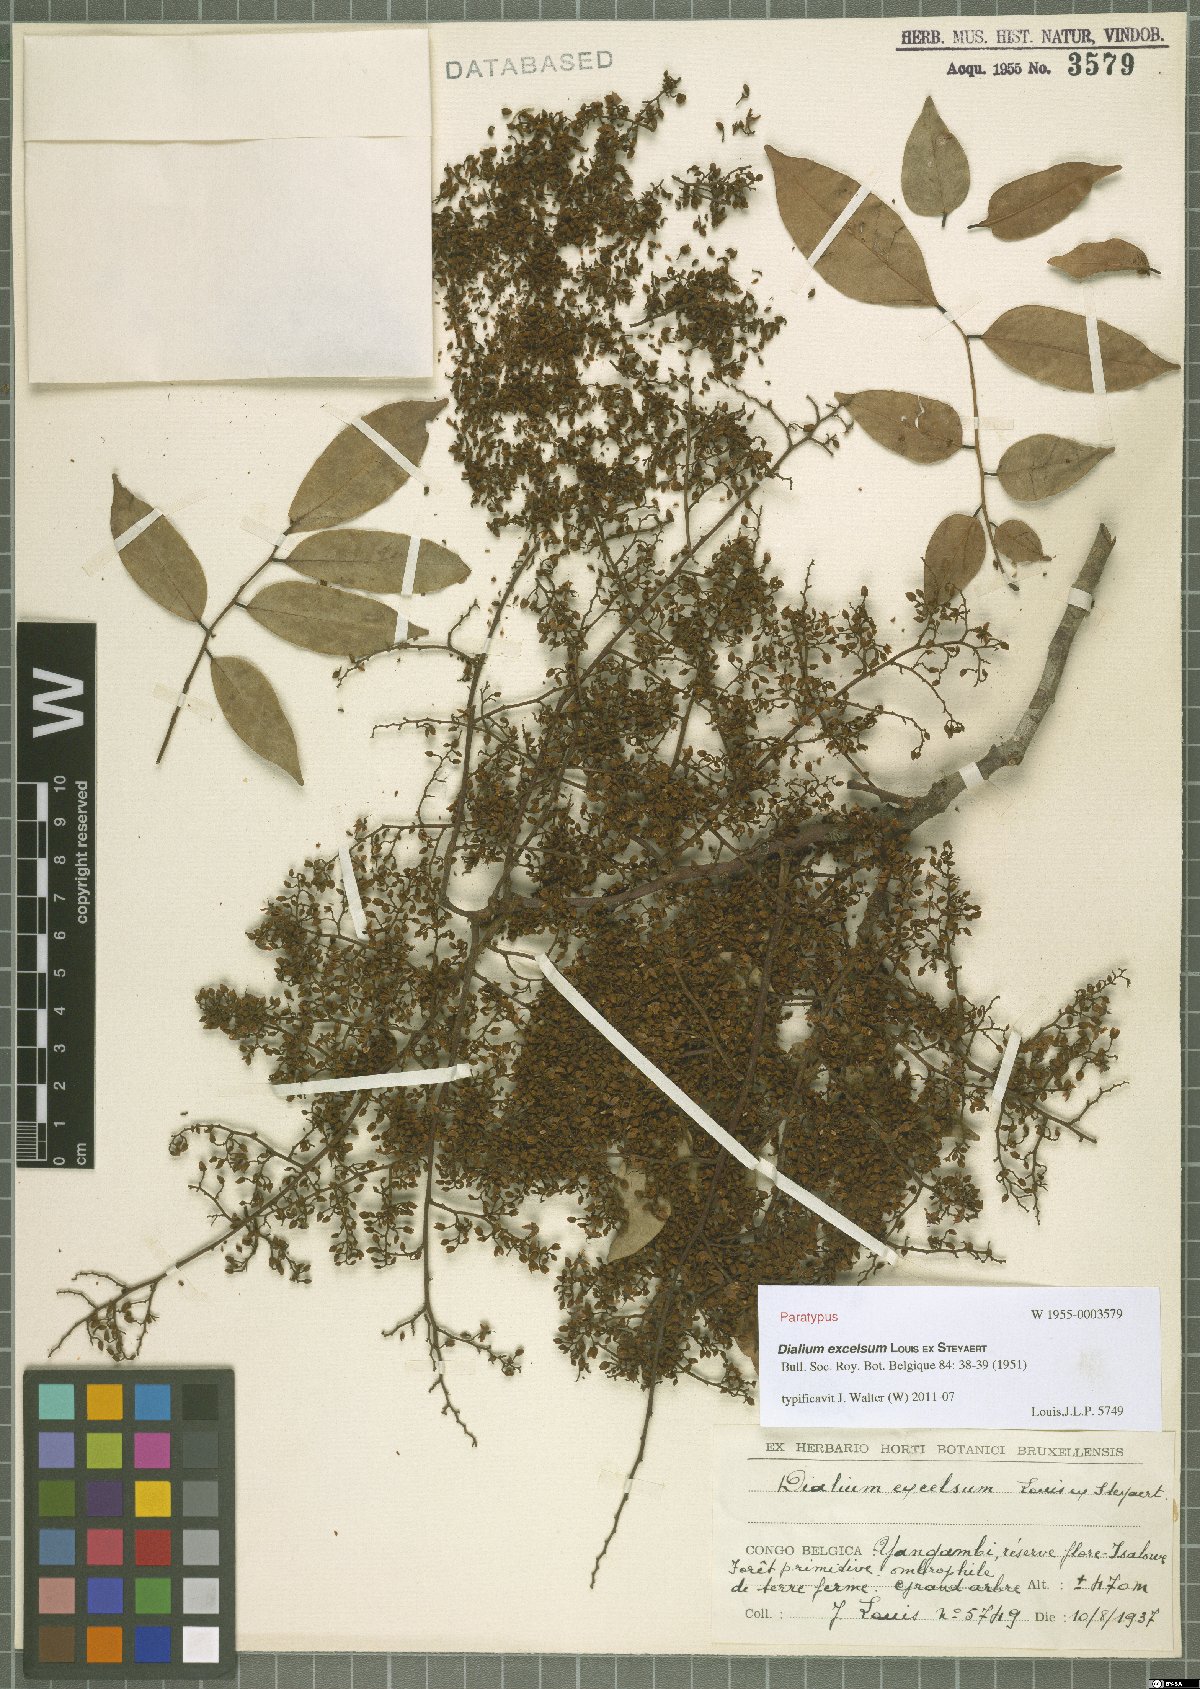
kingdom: Plantae
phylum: Tracheophyta
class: Magnoliopsida
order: Fabales
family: Fabaceae
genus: Dialium
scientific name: Dialium excelsum
